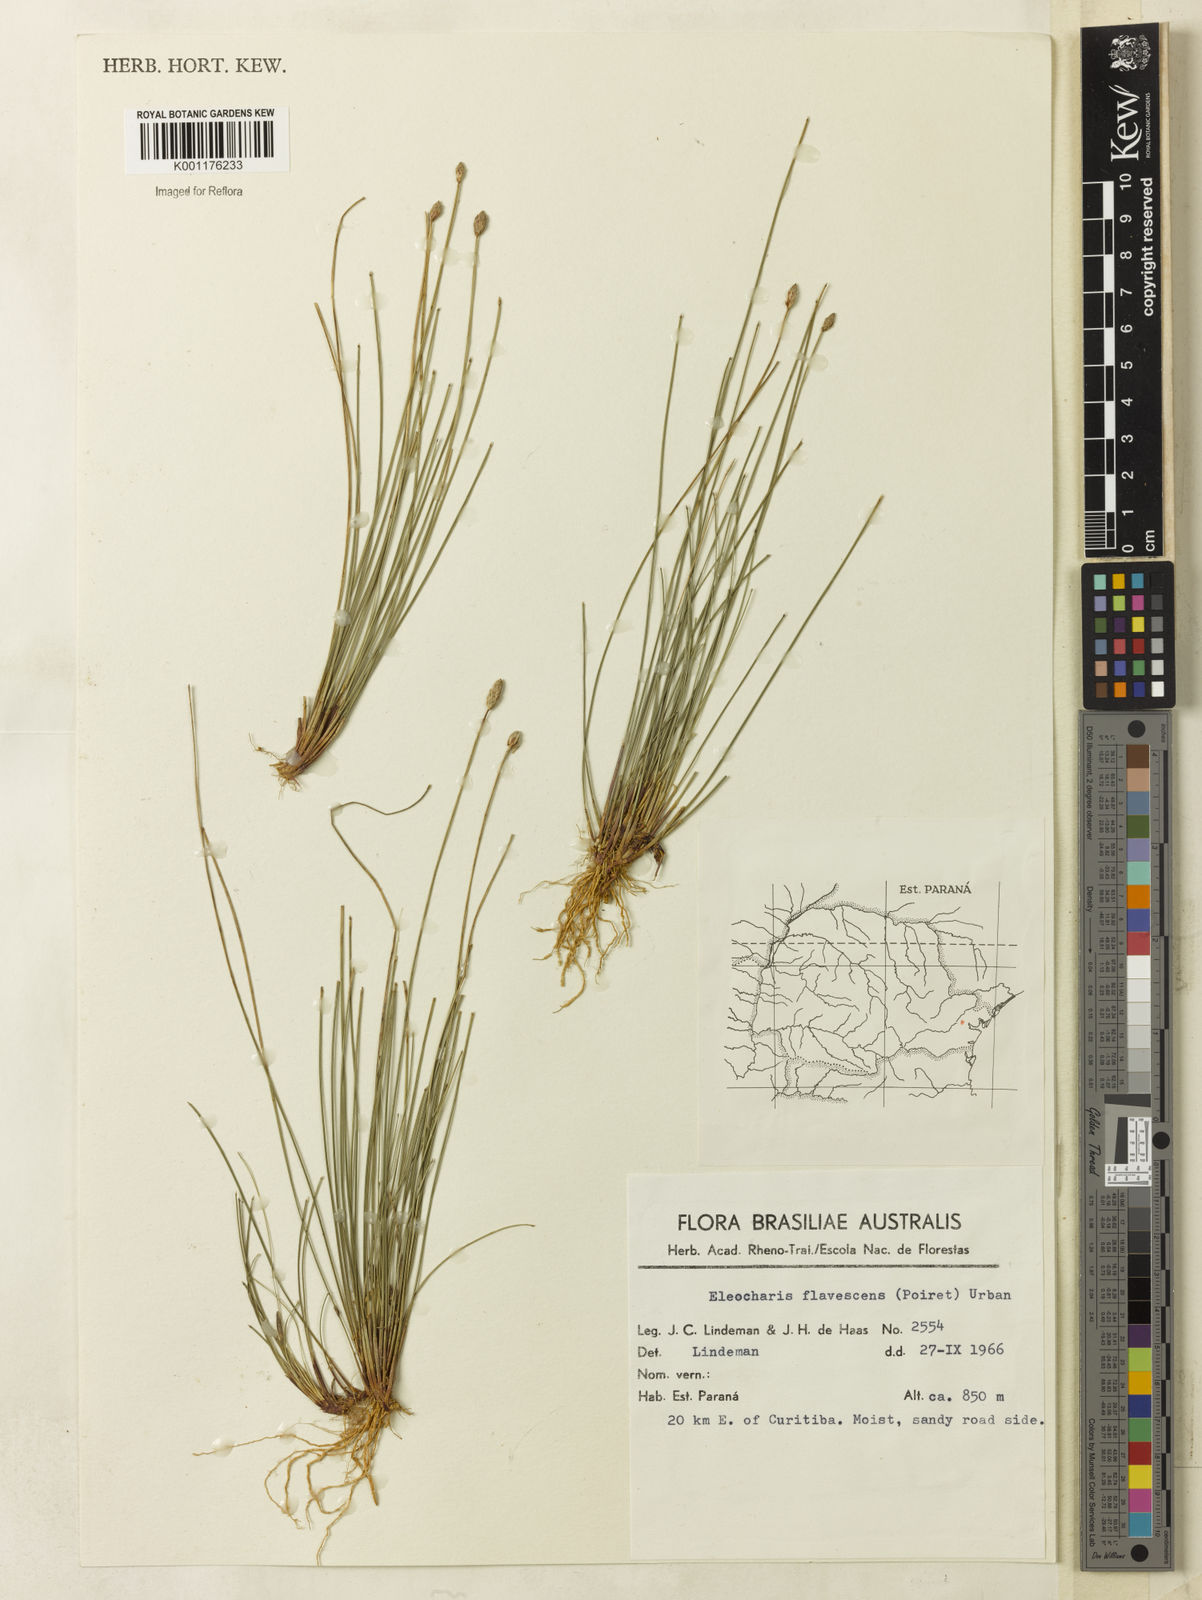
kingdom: Plantae
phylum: Tracheophyta
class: Liliopsida
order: Poales
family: Cyperaceae
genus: Eleocharis
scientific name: Eleocharis flavescens
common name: Yellow spikerush
